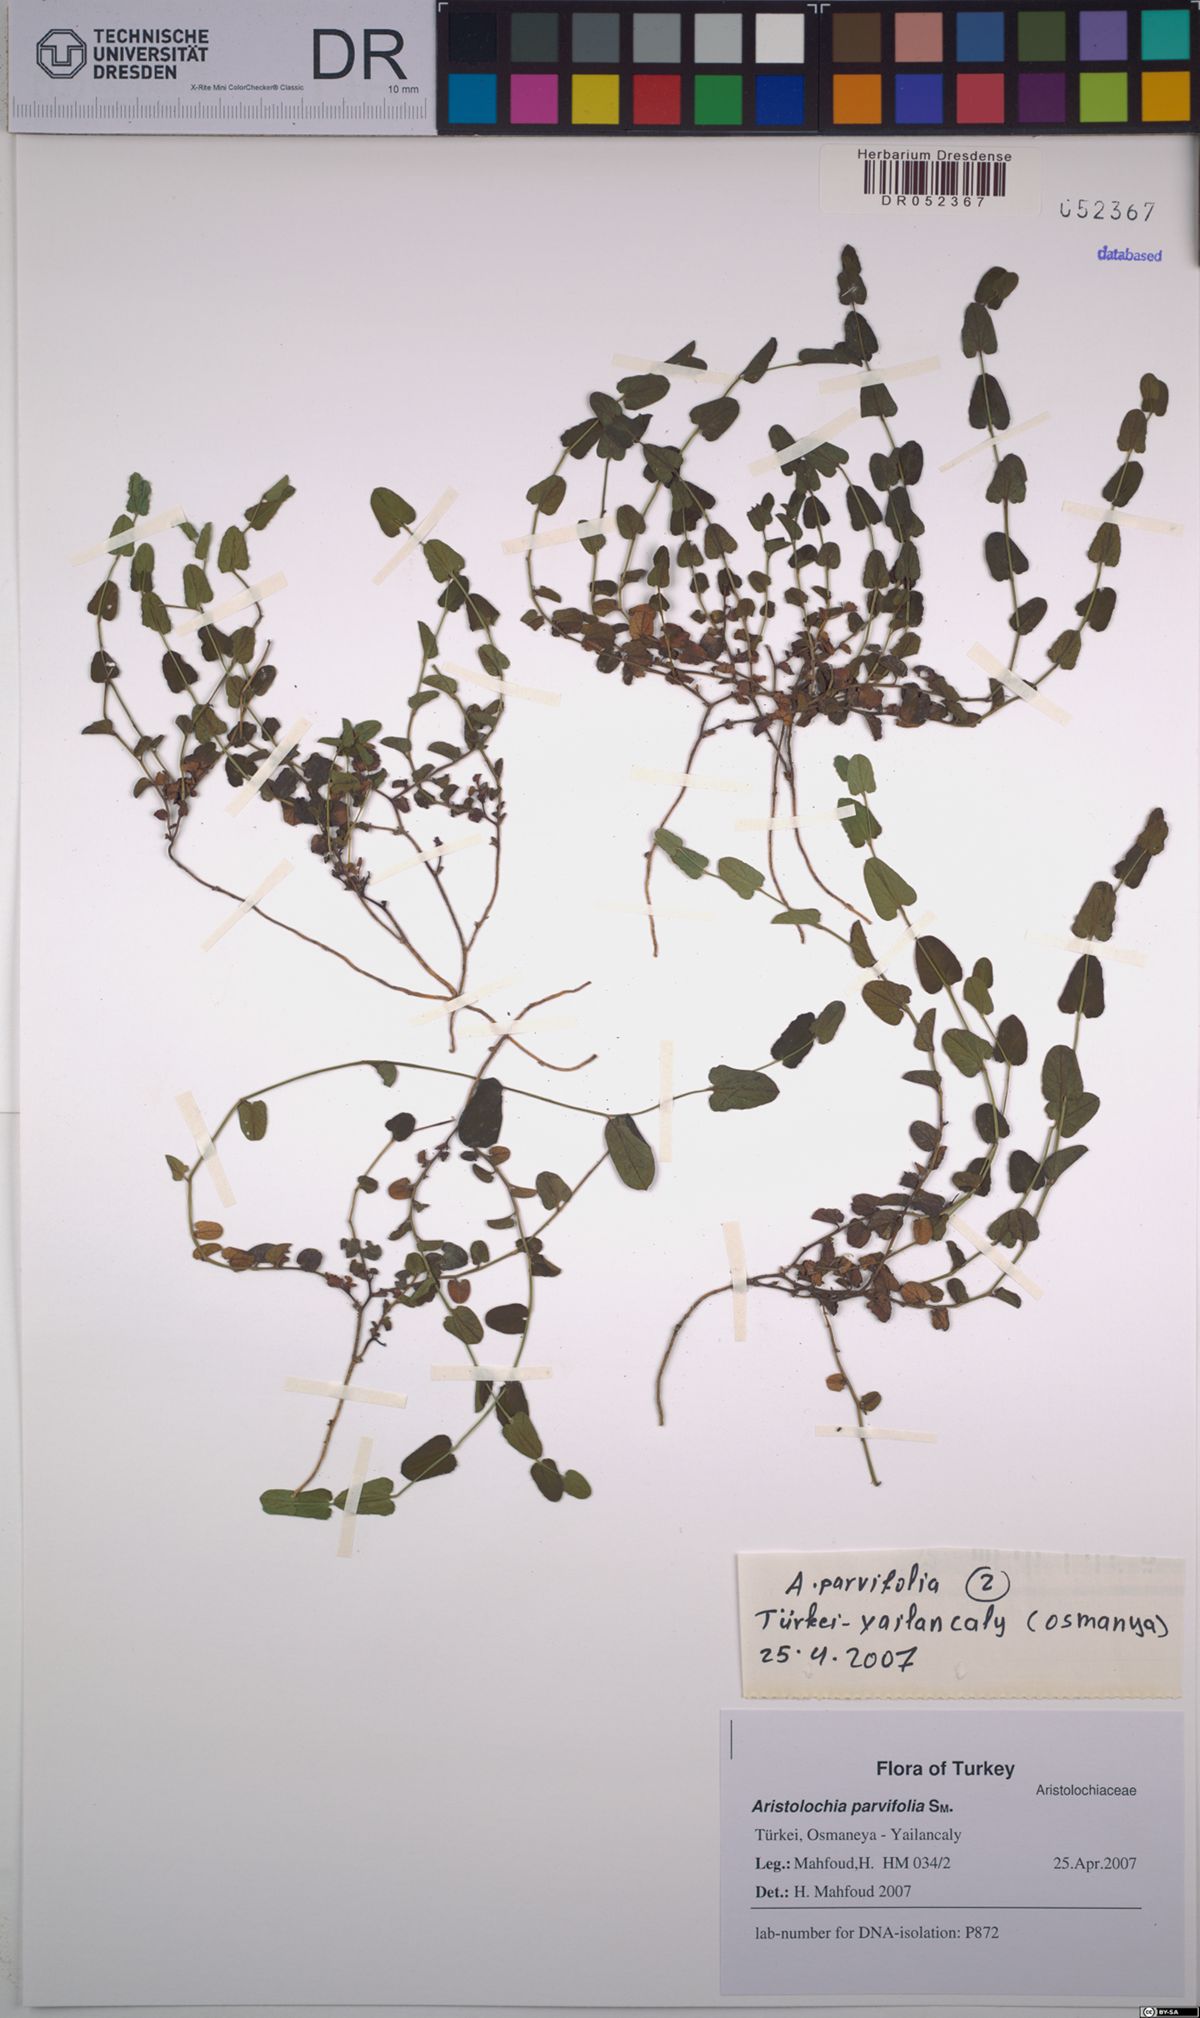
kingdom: Plantae
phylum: Tracheophyta
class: Magnoliopsida
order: Piperales
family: Aristolochiaceae
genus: Aristolochia
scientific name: Aristolochia parvifolia
